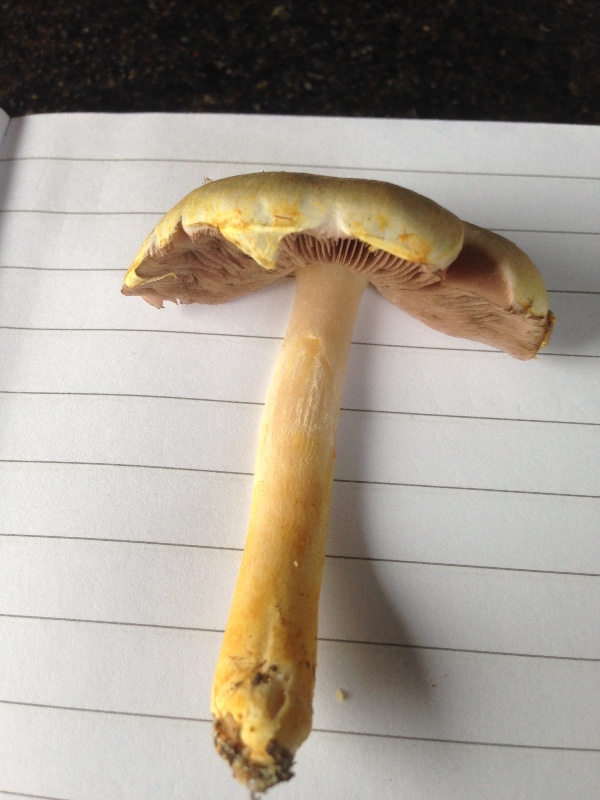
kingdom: Fungi
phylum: Basidiomycota
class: Agaricomycetes
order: Agaricales
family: Agaricaceae
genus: Agaricus
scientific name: Agaricus dulcidulus
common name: blegrød champignon
